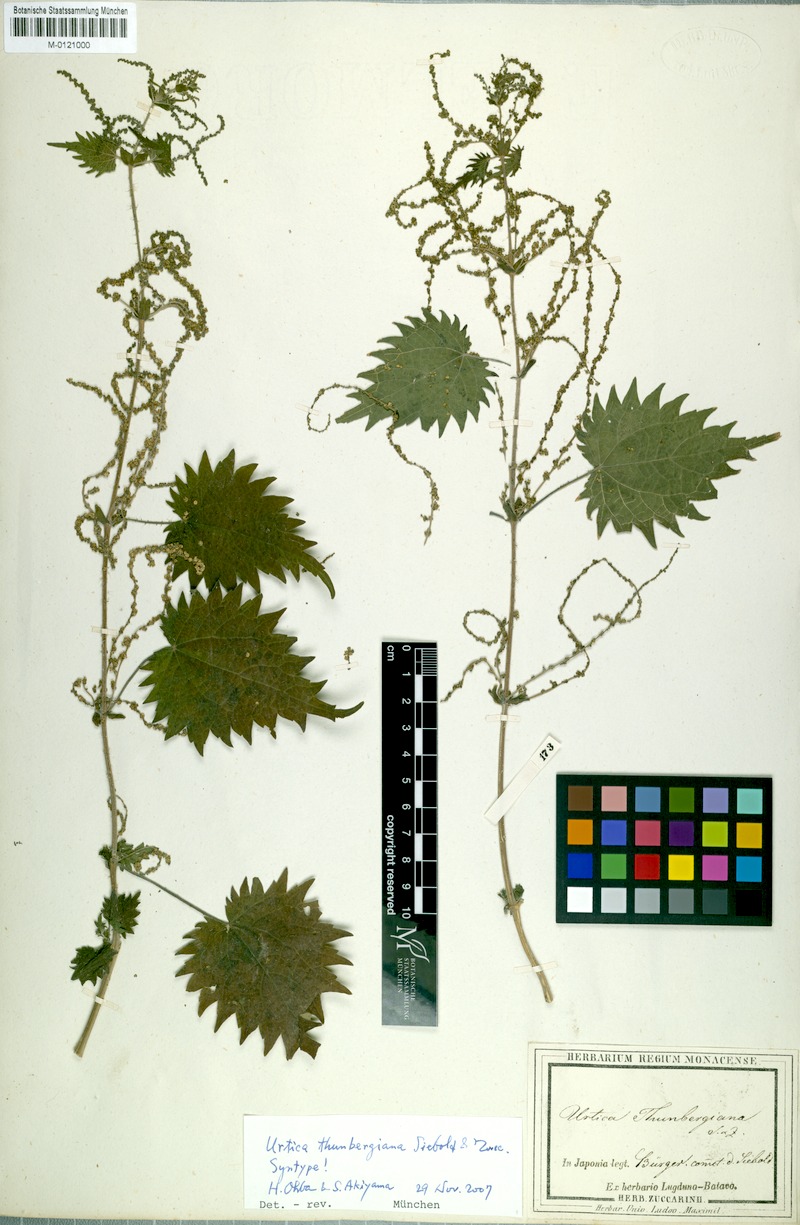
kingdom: Plantae
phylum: Tracheophyta
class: Magnoliopsida
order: Rosales
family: Urticaceae
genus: Urtica
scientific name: Urtica thunbergiana
